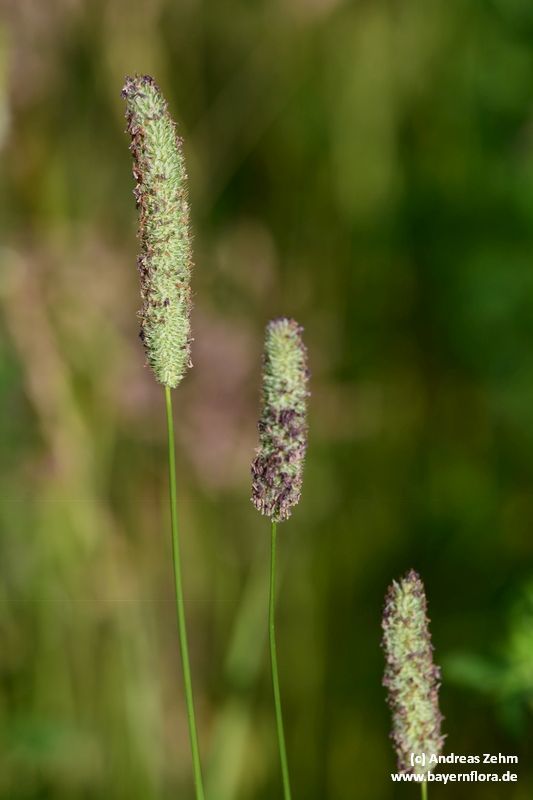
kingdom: Plantae
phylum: Tracheophyta
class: Liliopsida
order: Poales
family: Poaceae
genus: Phleum
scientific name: Phleum pratense
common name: Timothy grass
